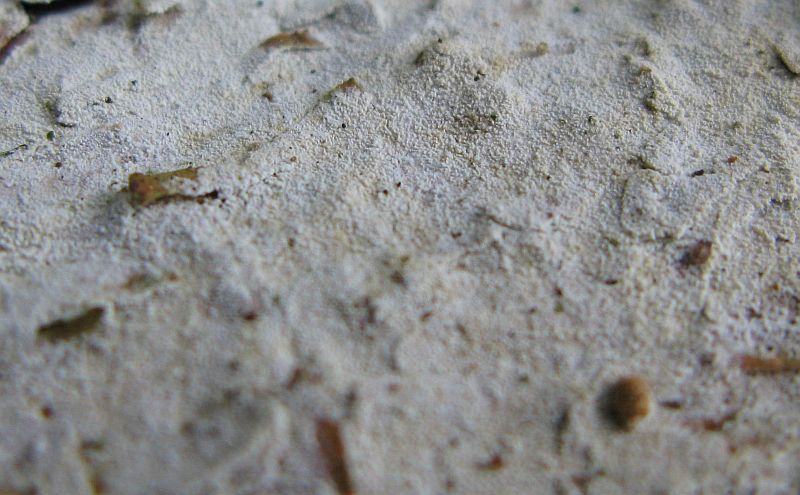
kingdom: Fungi
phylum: Basidiomycota
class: Agaricomycetes
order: Hymenochaetales
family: Schizoporaceae
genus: Xylodon
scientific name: Xylodon nesporii
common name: fintandet tandsvamp
